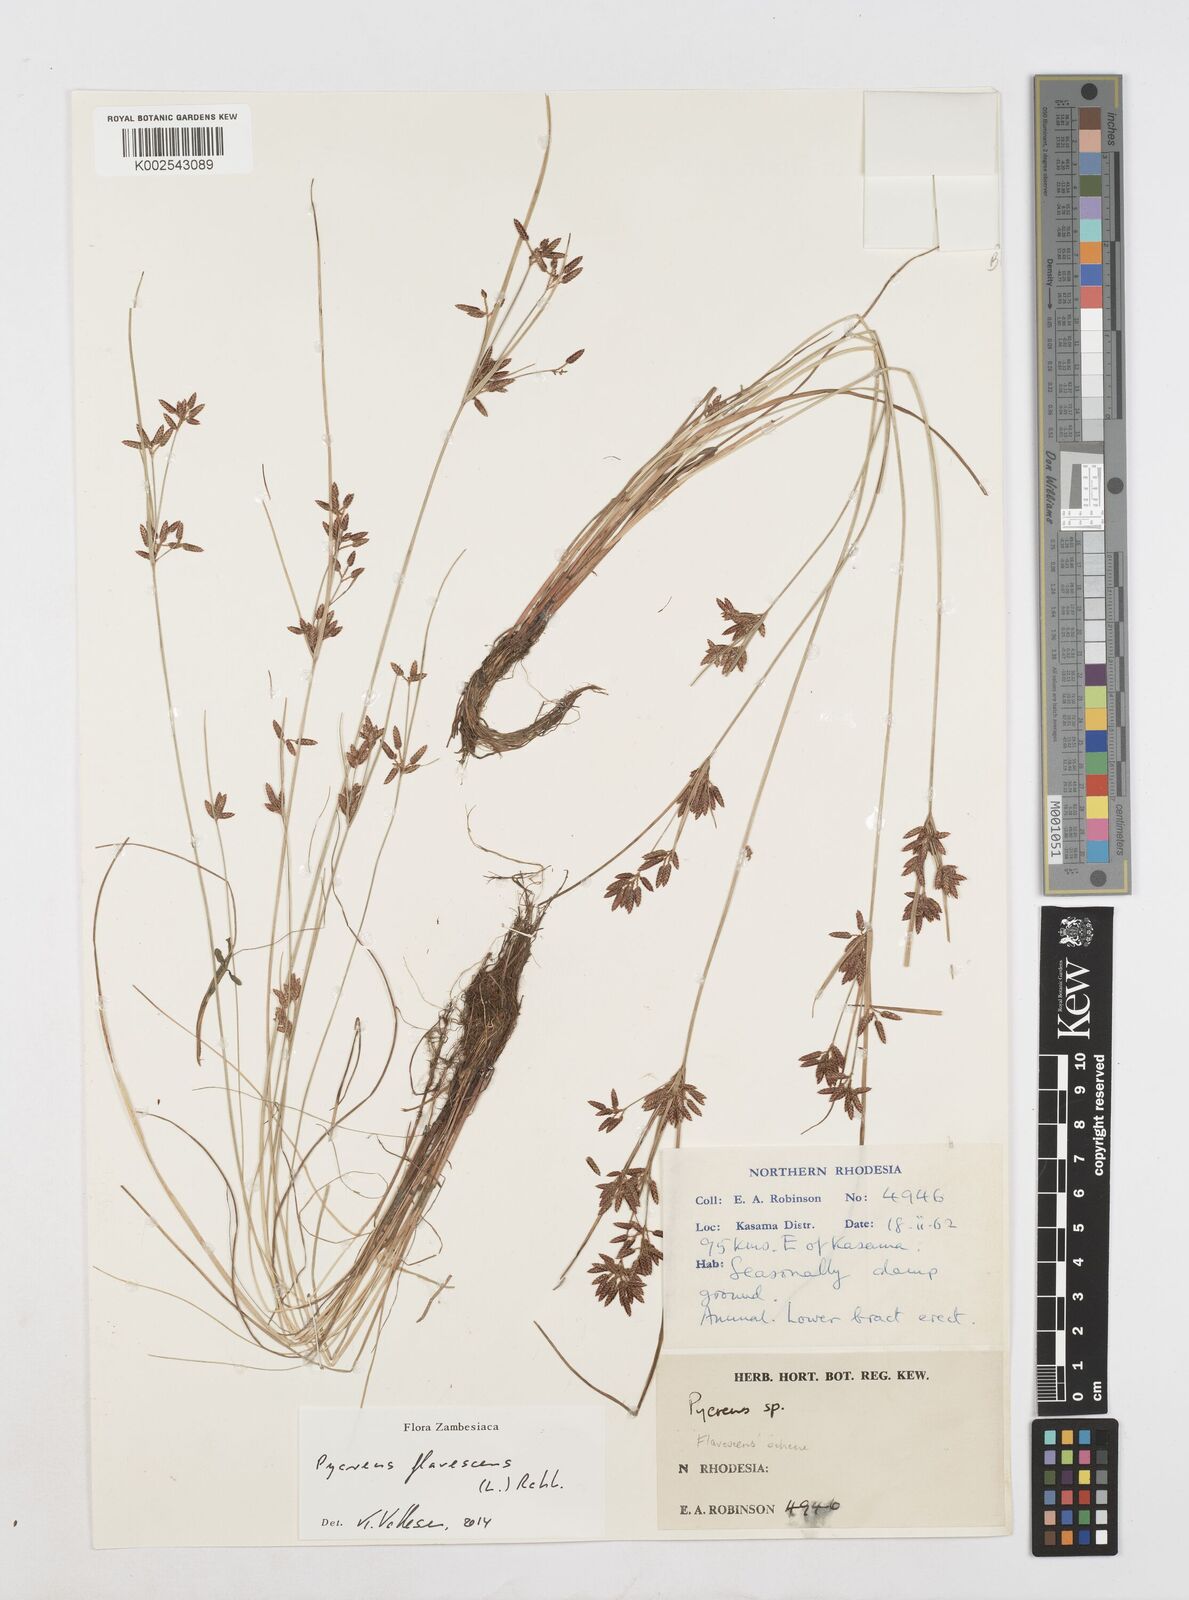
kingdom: Plantae
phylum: Tracheophyta
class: Liliopsida
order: Poales
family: Cyperaceae
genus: Cyperus
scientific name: Cyperus flavescens
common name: Yellow galingale
